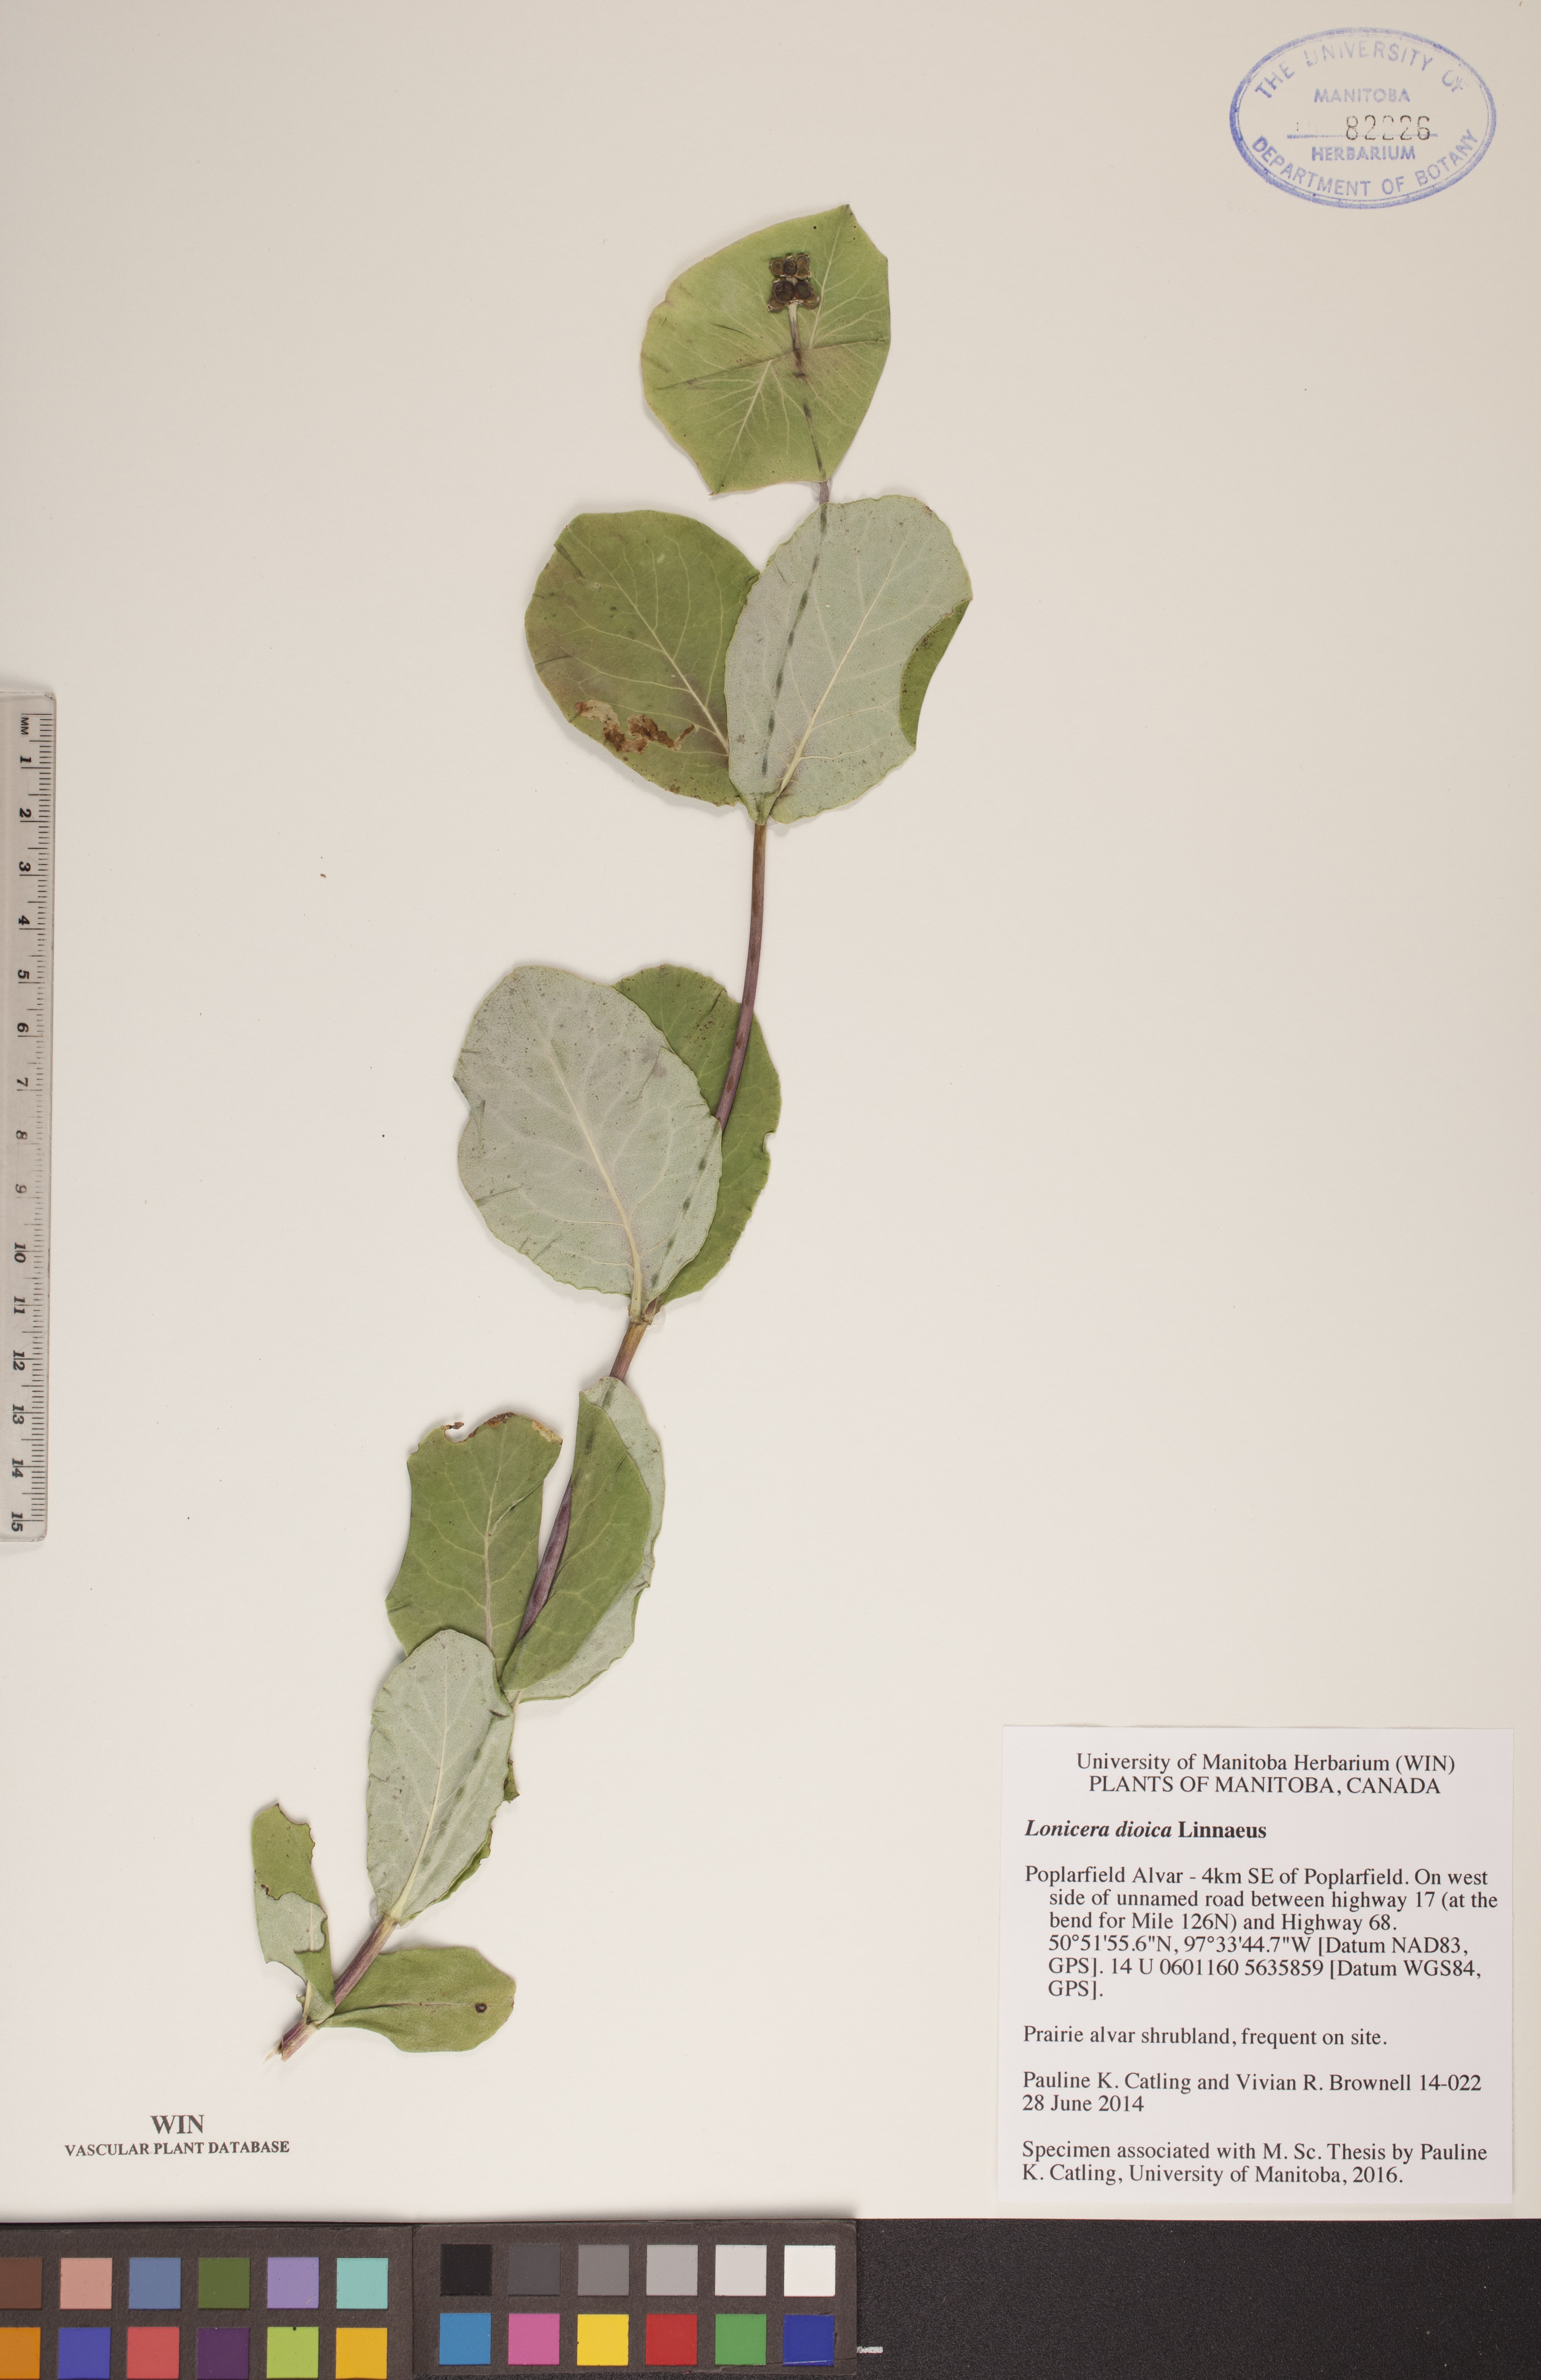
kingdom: Plantae
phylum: Tracheophyta
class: Magnoliopsida
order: Dipsacales
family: Caprifoliaceae
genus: Lonicera
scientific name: Lonicera dioica
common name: Limber honeysuckle
